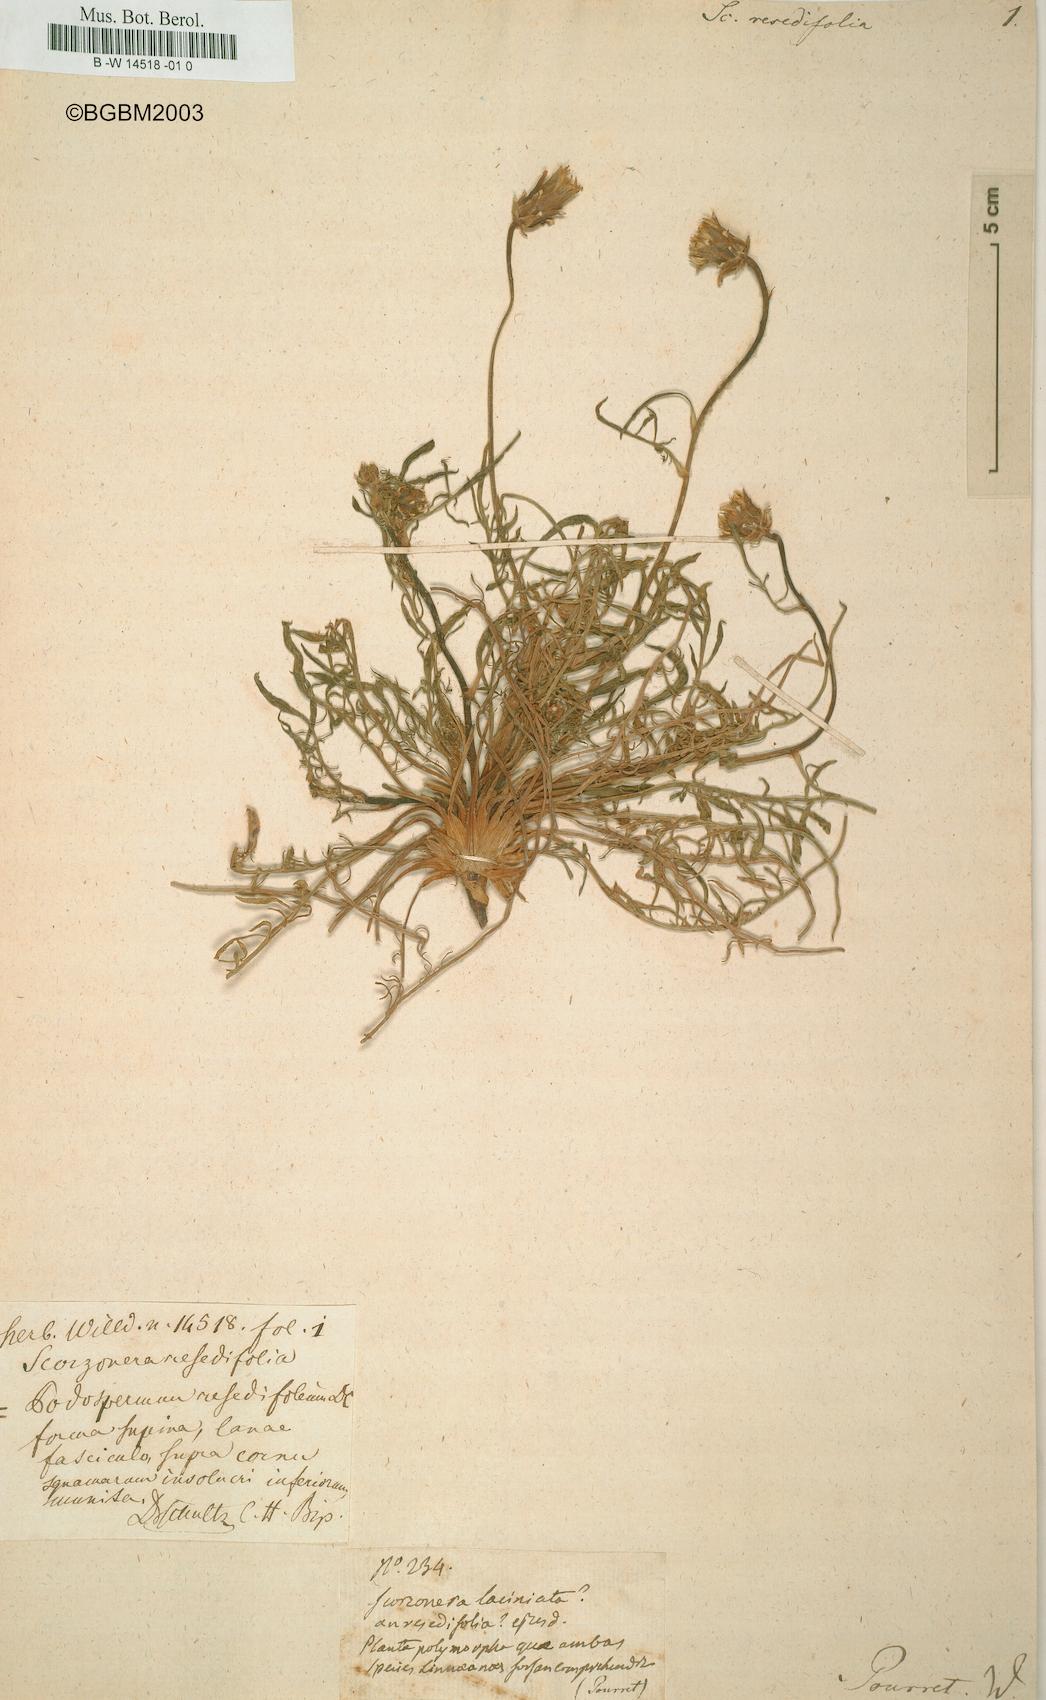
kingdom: Plantae
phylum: Tracheophyta
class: Magnoliopsida
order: Asterales
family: Asteraceae
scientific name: Asteraceae
